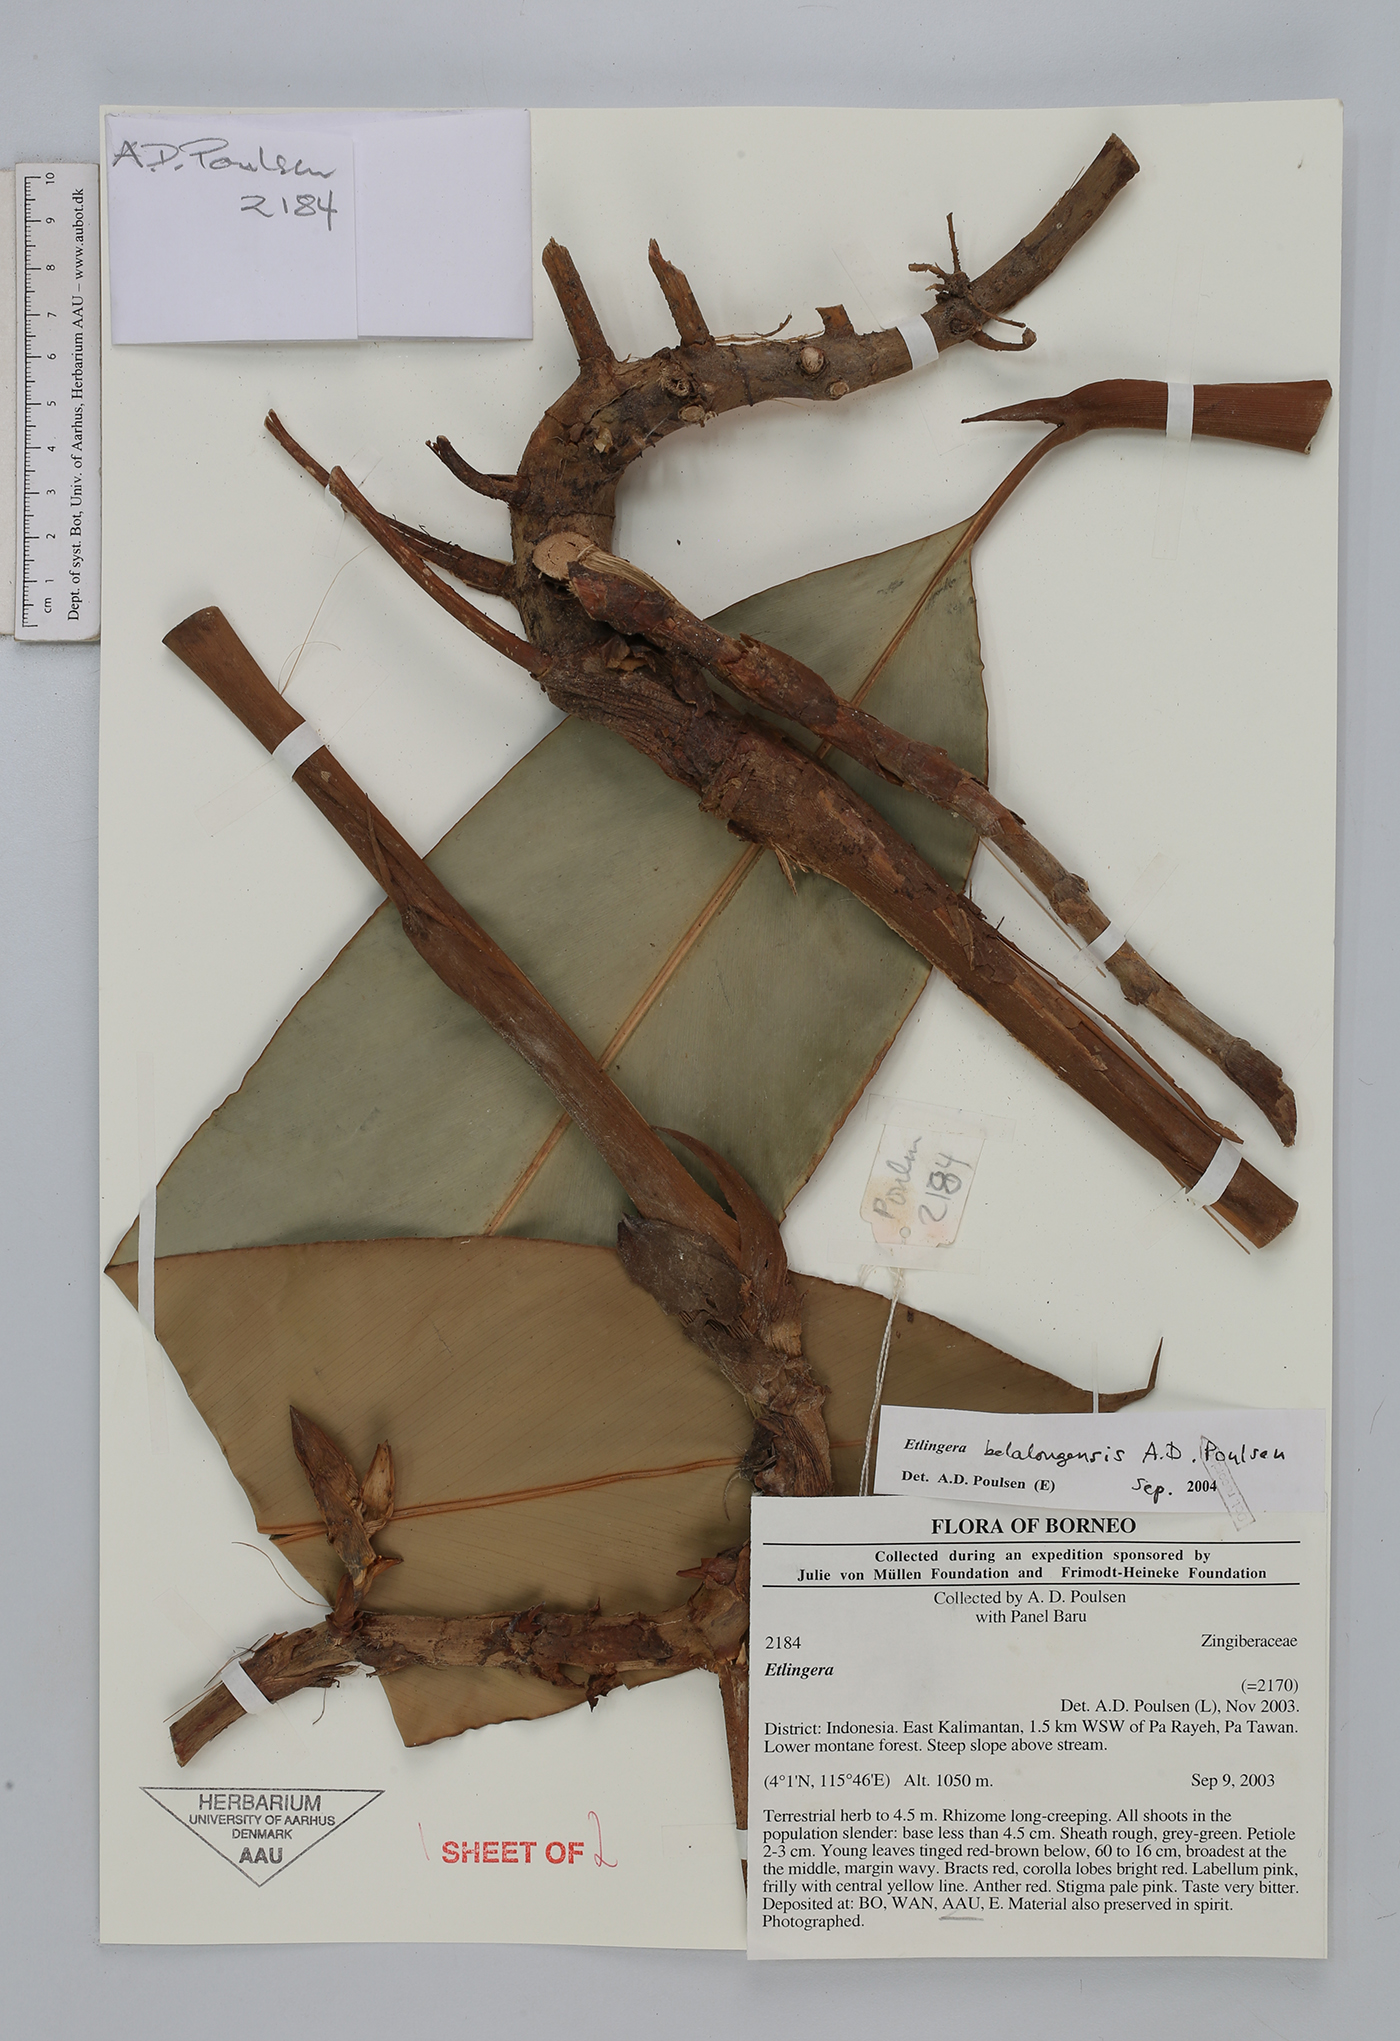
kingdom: Plantae
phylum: Tracheophyta
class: Liliopsida
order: Zingiberales
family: Zingiberaceae
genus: Etlingera
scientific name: Etlingera belalongensis
